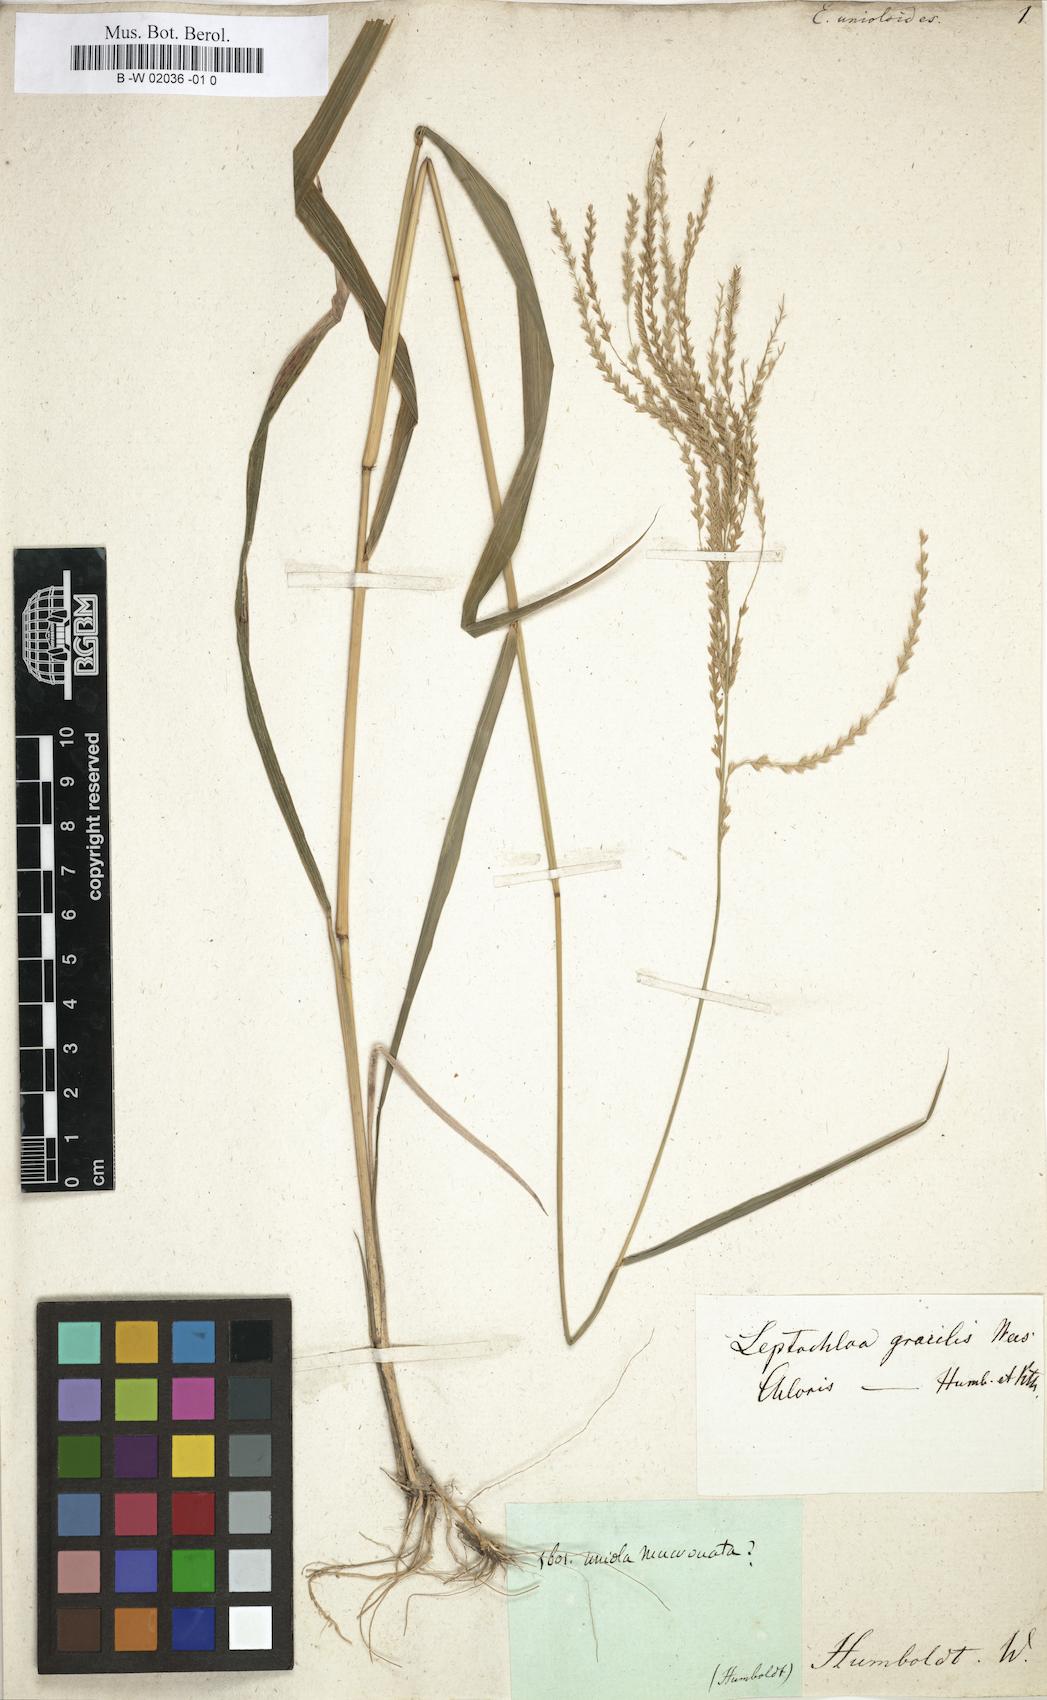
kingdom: Plantae
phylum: Tracheophyta
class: Liliopsida
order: Poales
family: Poaceae
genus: Leptochloa
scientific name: Leptochloa virgata
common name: Tropical sprangletop
